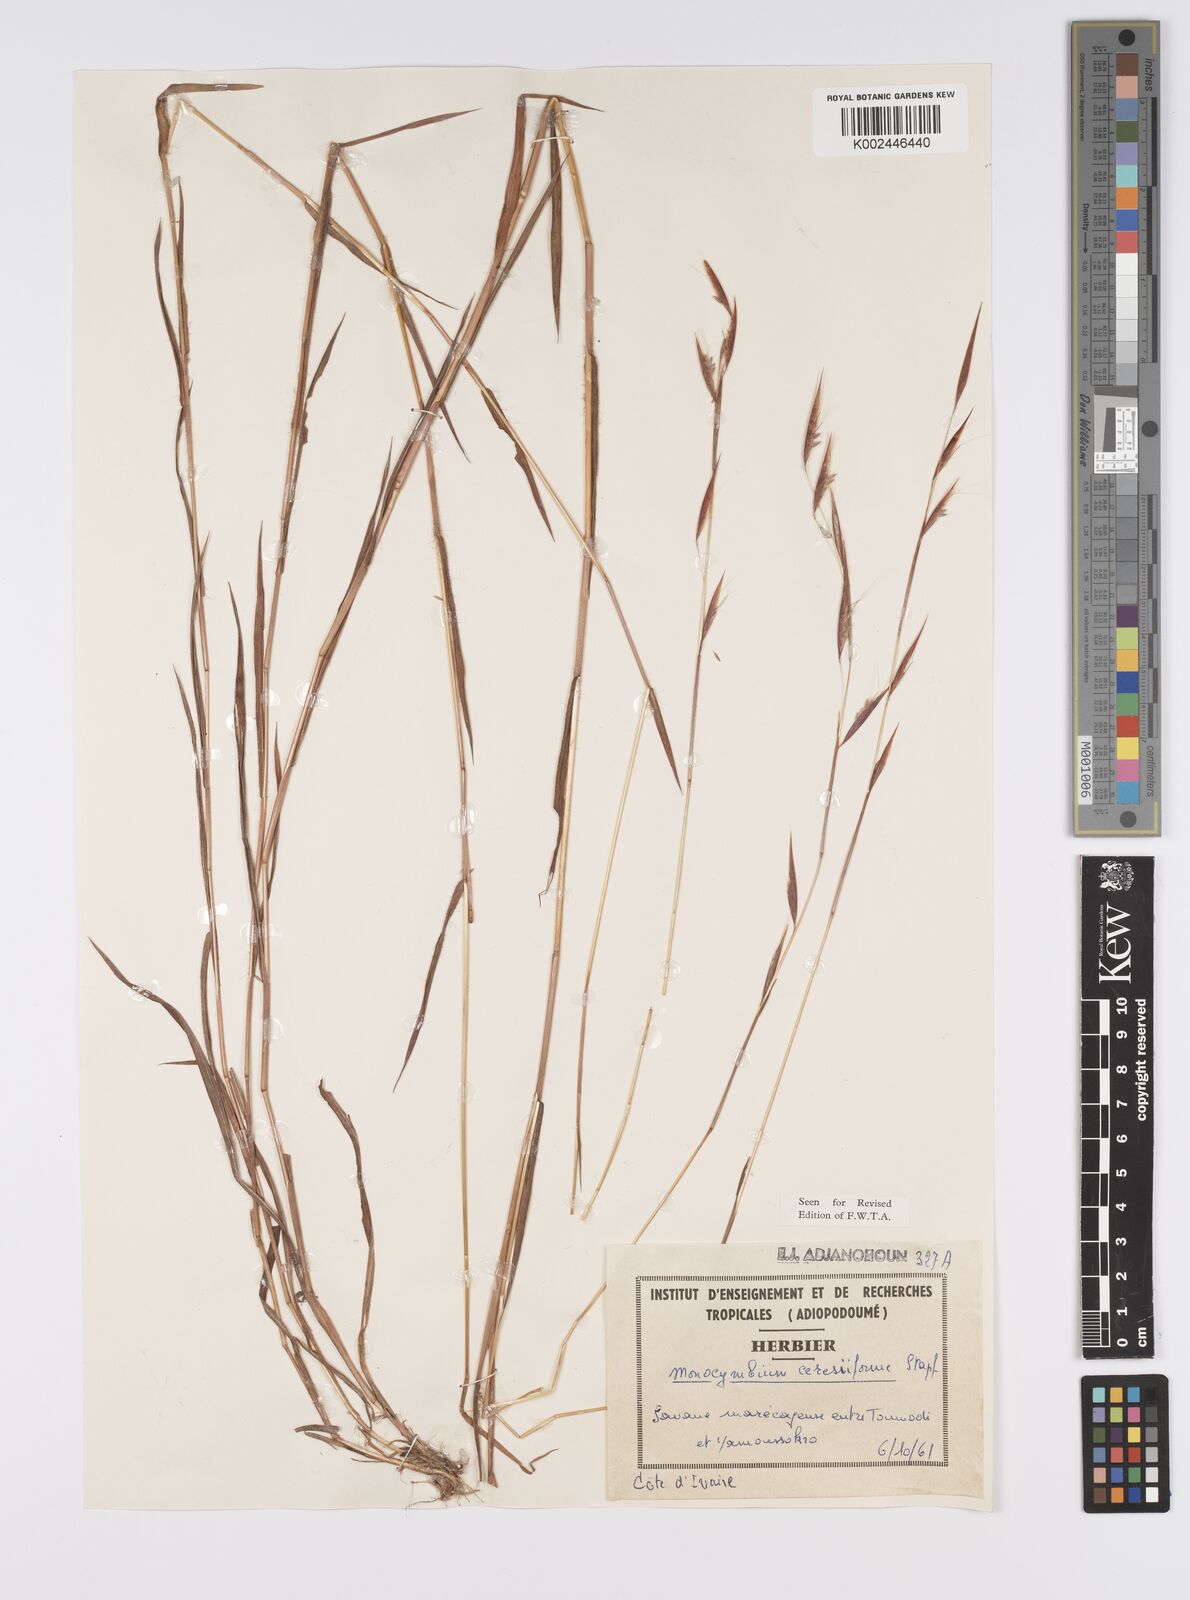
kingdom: Plantae
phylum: Tracheophyta
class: Liliopsida
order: Poales
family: Poaceae
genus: Monocymbium
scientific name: Monocymbium ceresiiforme
